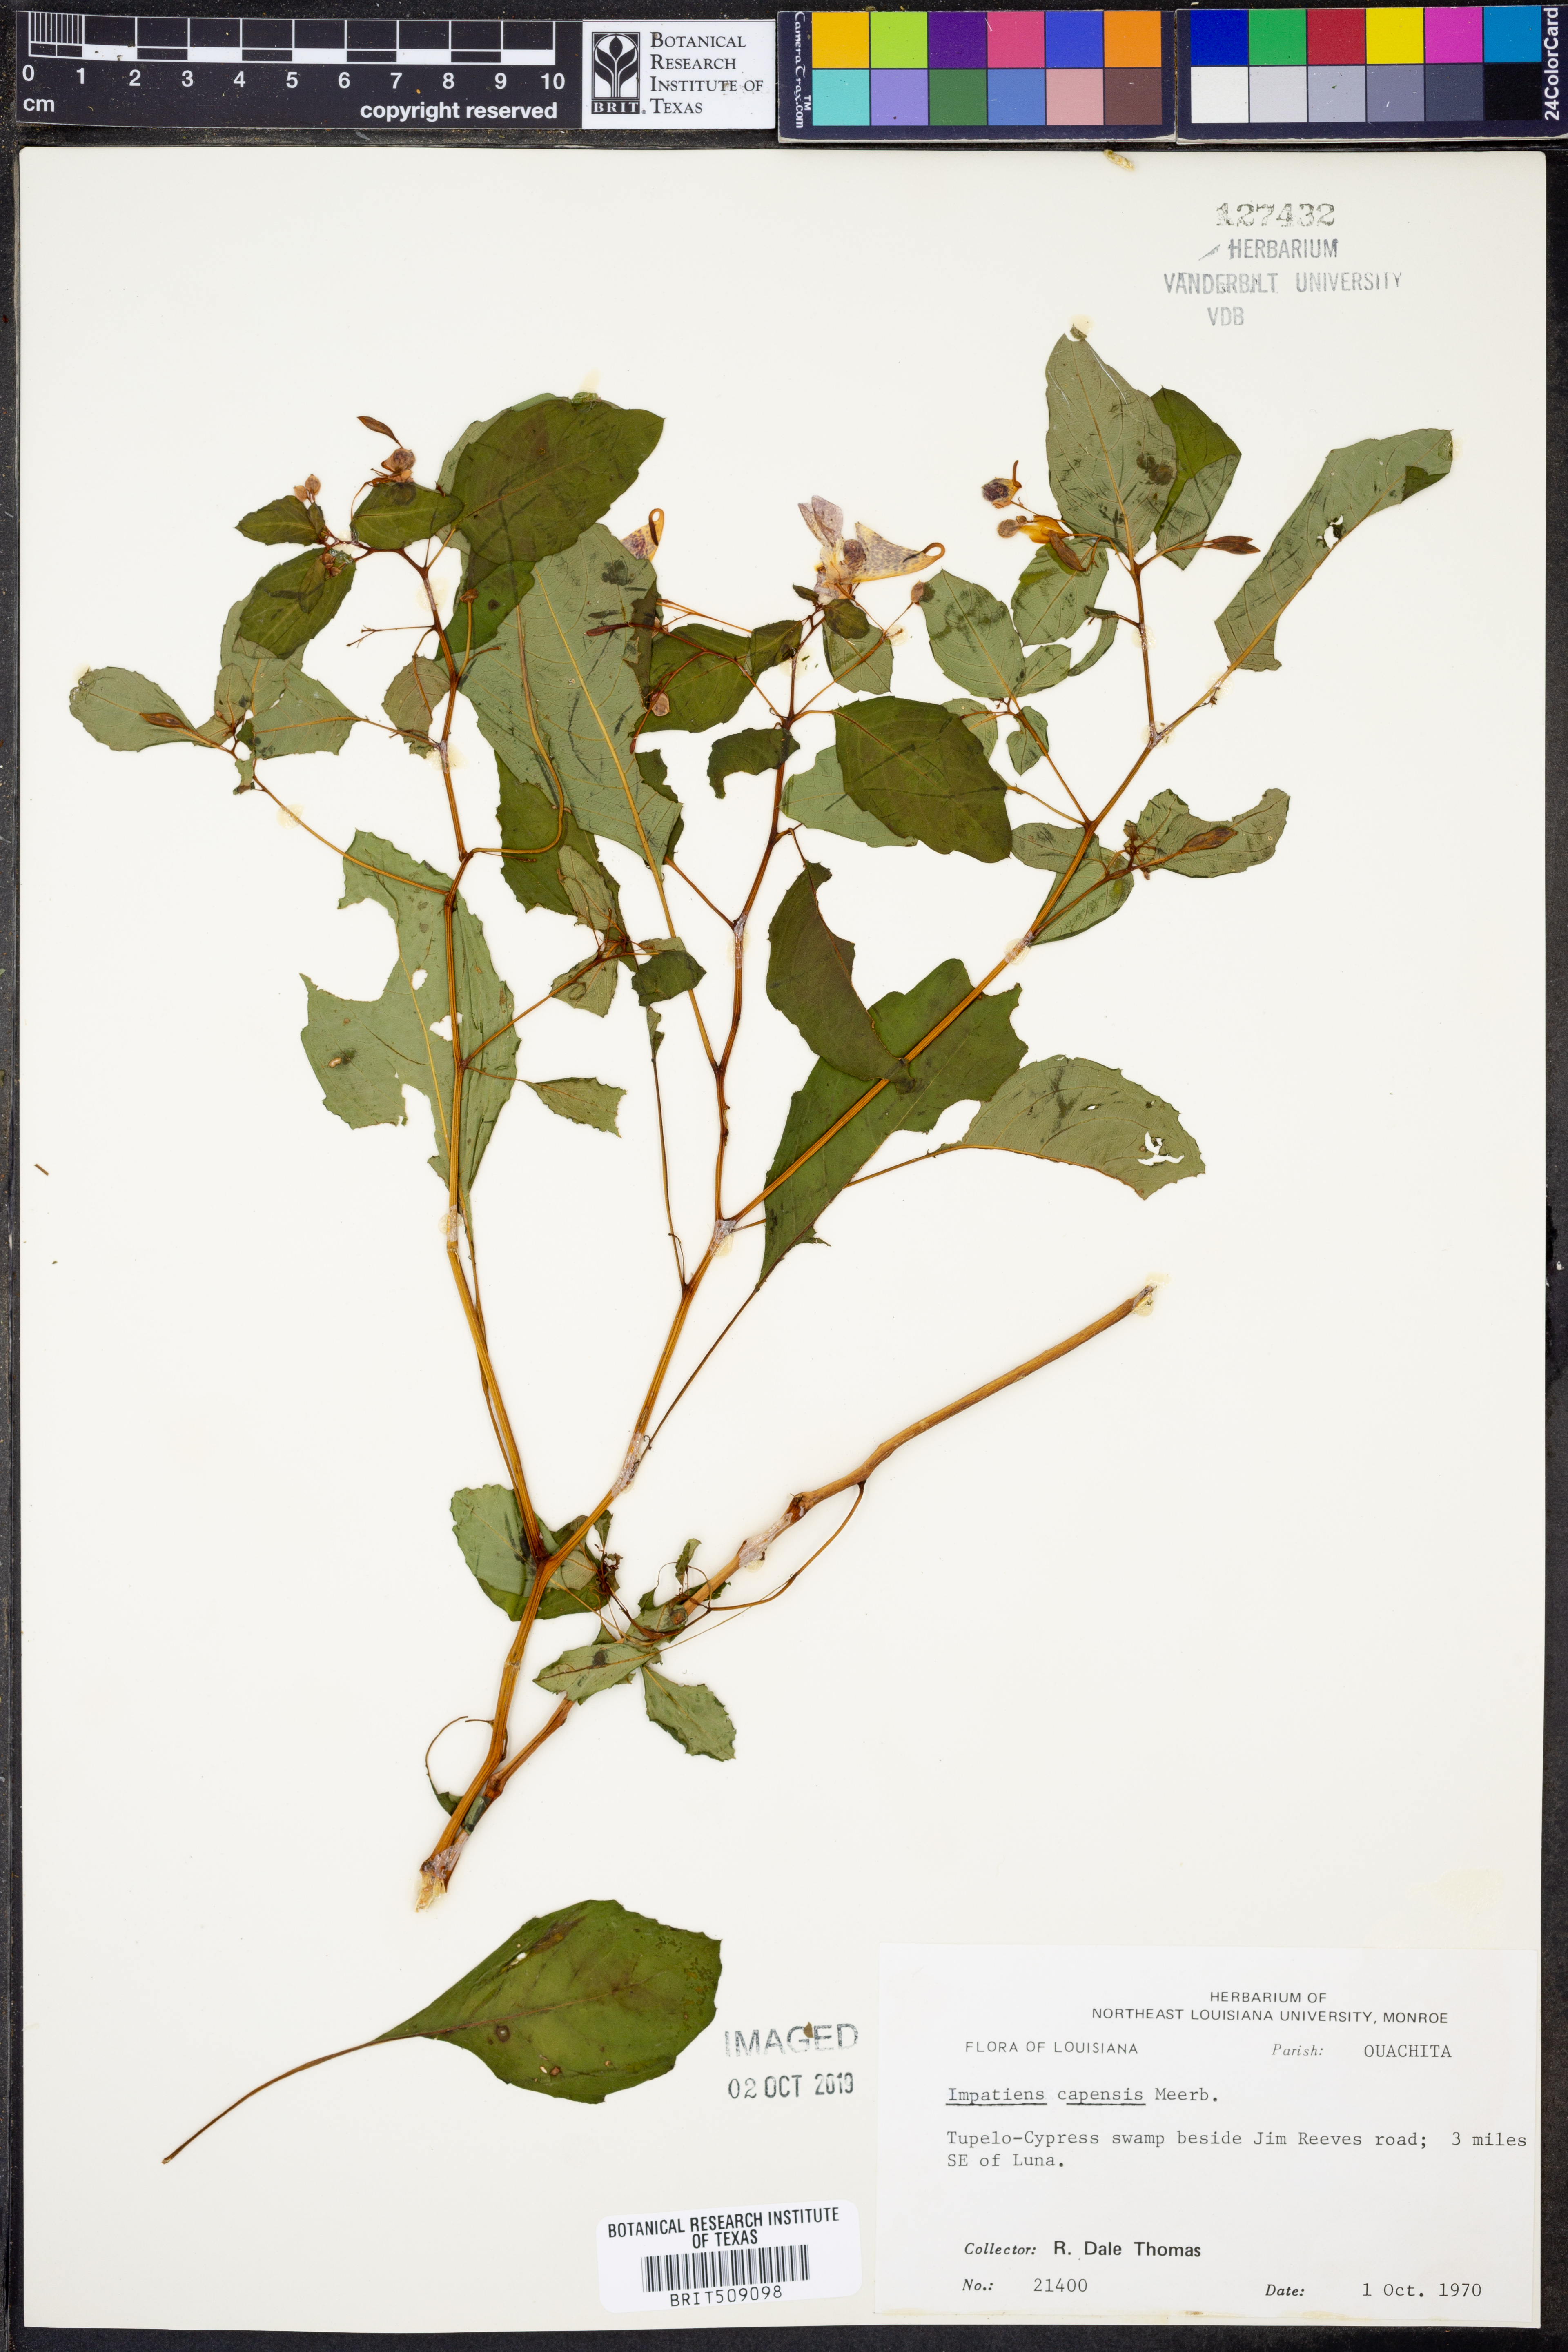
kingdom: Plantae
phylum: Tracheophyta
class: Magnoliopsida
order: Ericales
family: Balsaminaceae
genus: Impatiens
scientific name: Impatiens capensis
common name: Orange balsam
